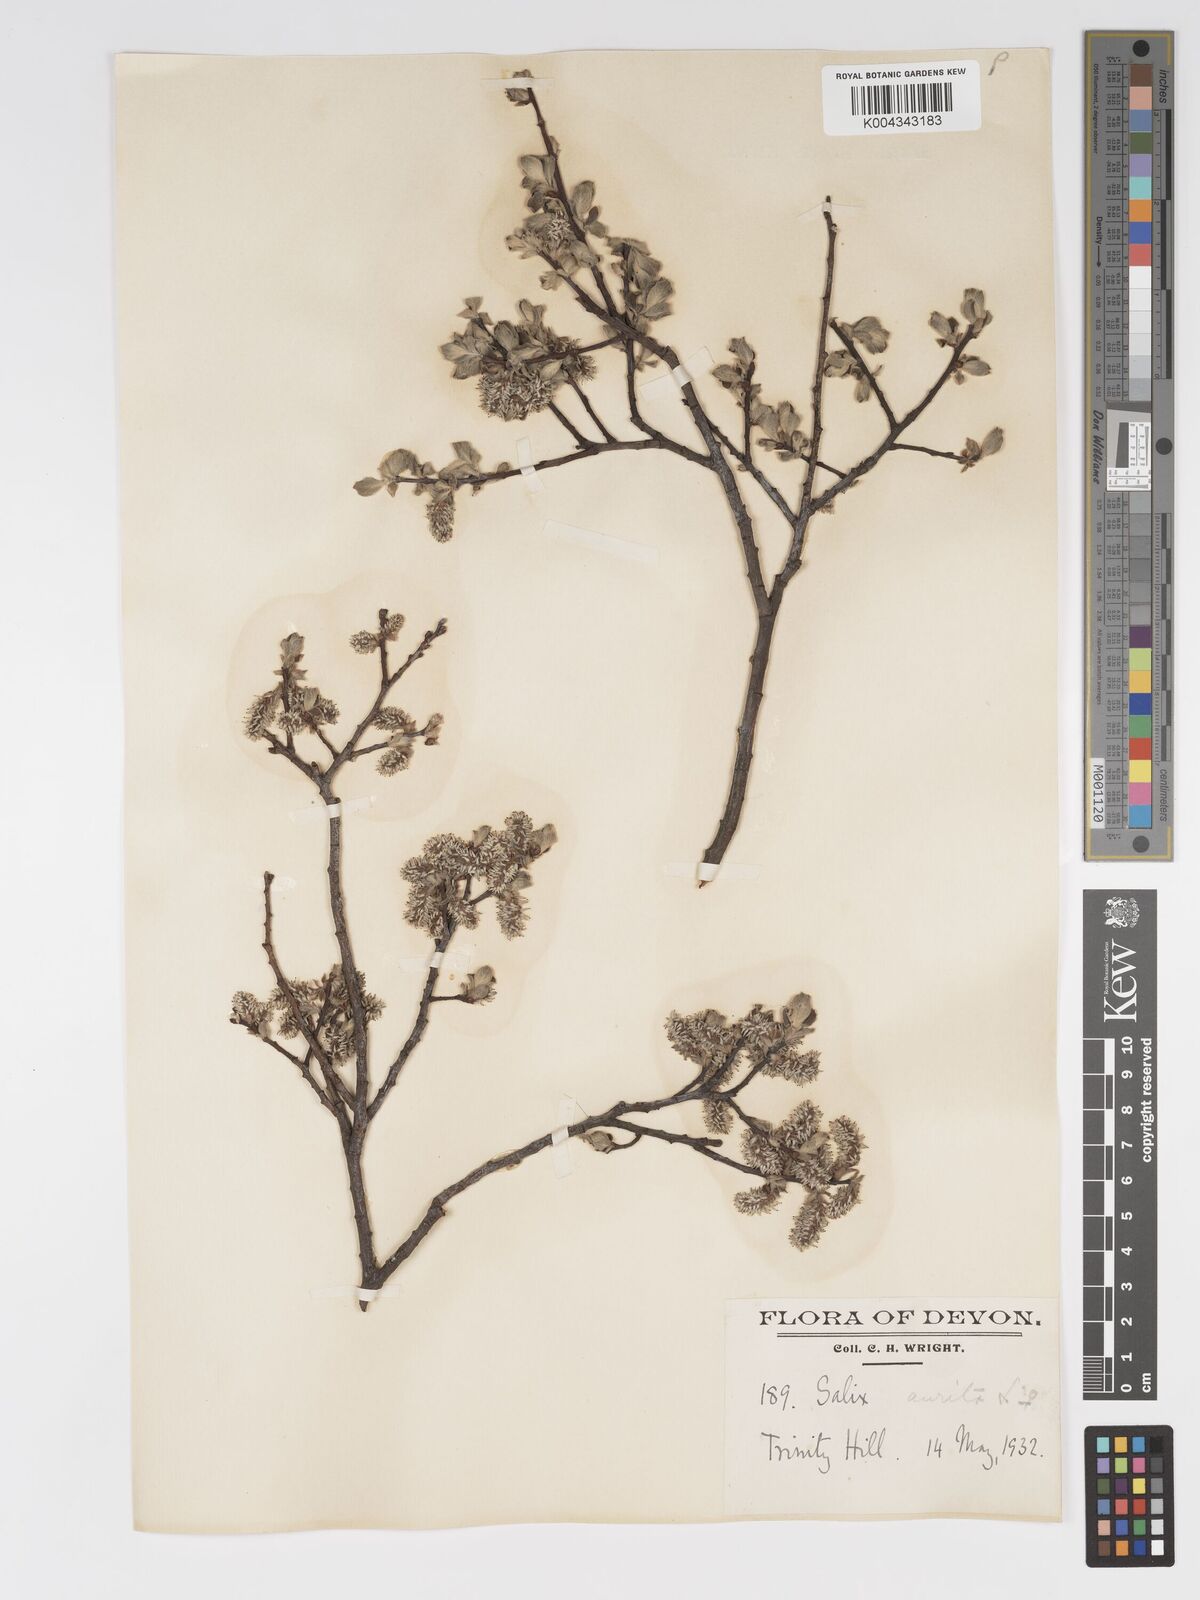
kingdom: Plantae
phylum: Tracheophyta
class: Magnoliopsida
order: Malpighiales
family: Salicaceae
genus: Salix
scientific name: Salix aurita
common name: Eared willow
